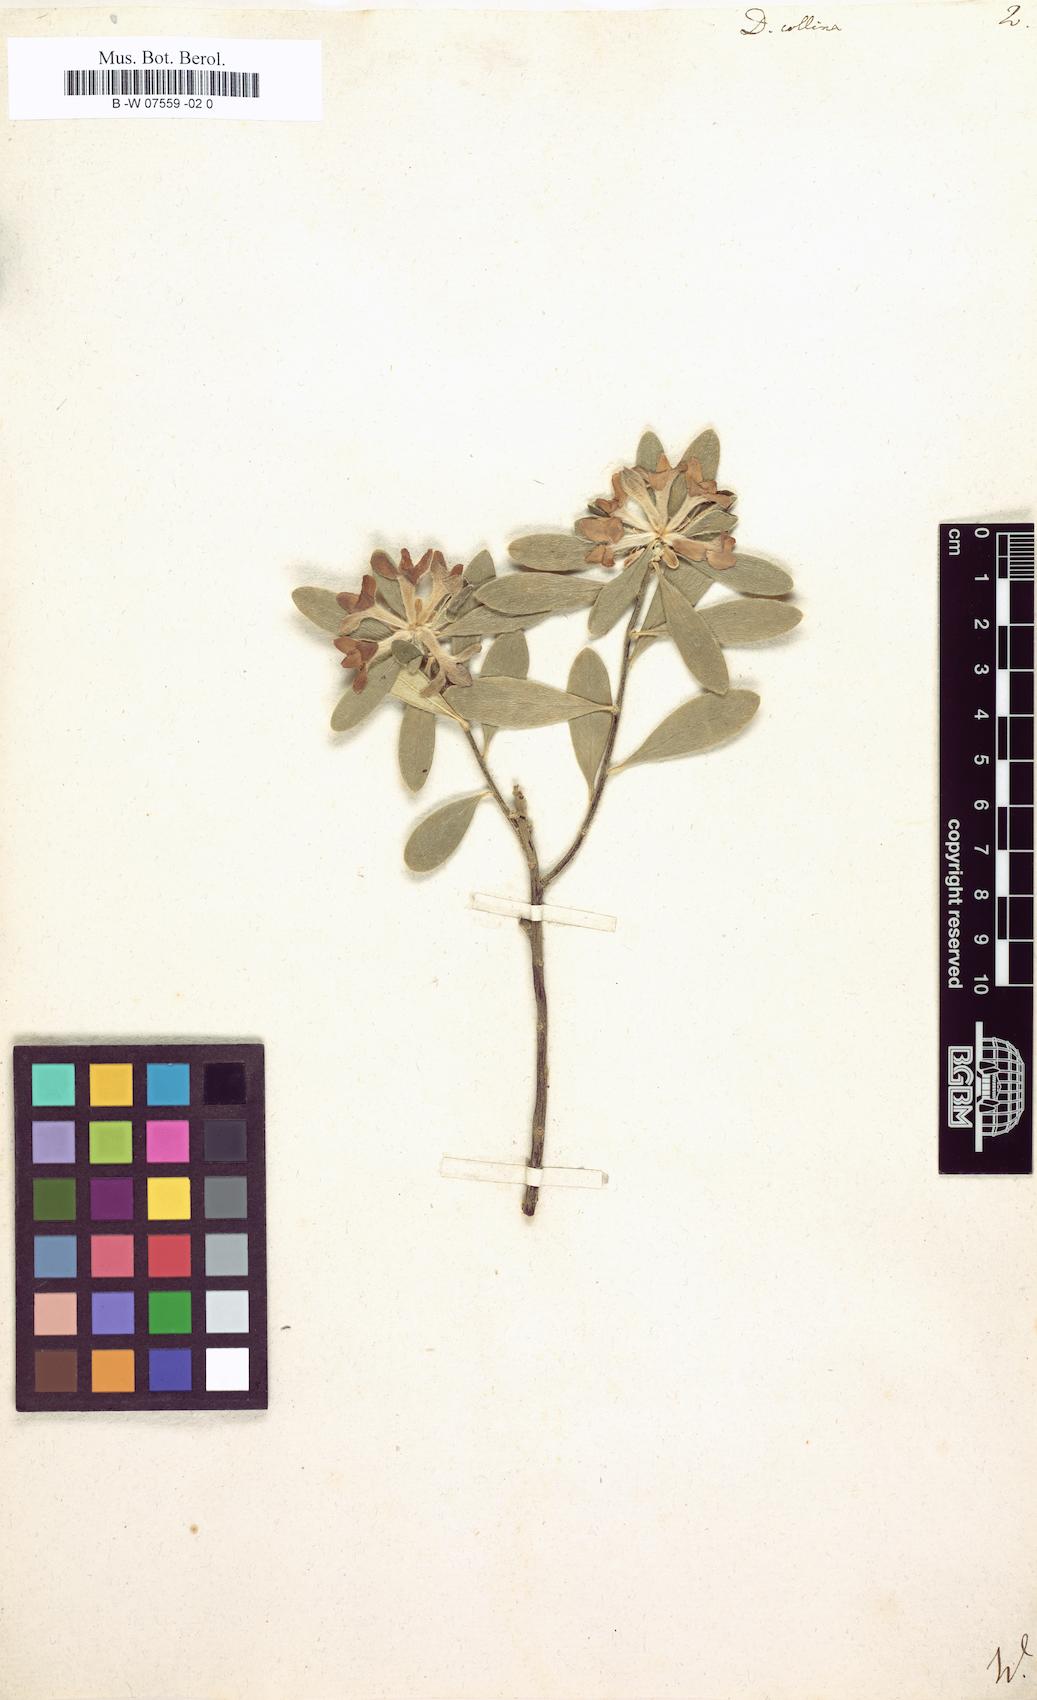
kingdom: Plantae
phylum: Tracheophyta
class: Magnoliopsida
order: Malvales
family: Thymelaeaceae
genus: Daphne
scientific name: Daphne
